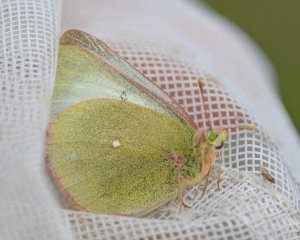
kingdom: Animalia
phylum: Arthropoda
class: Insecta
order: Lepidoptera
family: Pieridae
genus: Colias
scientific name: Colias palaeno
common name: Chippewa Sulphur
